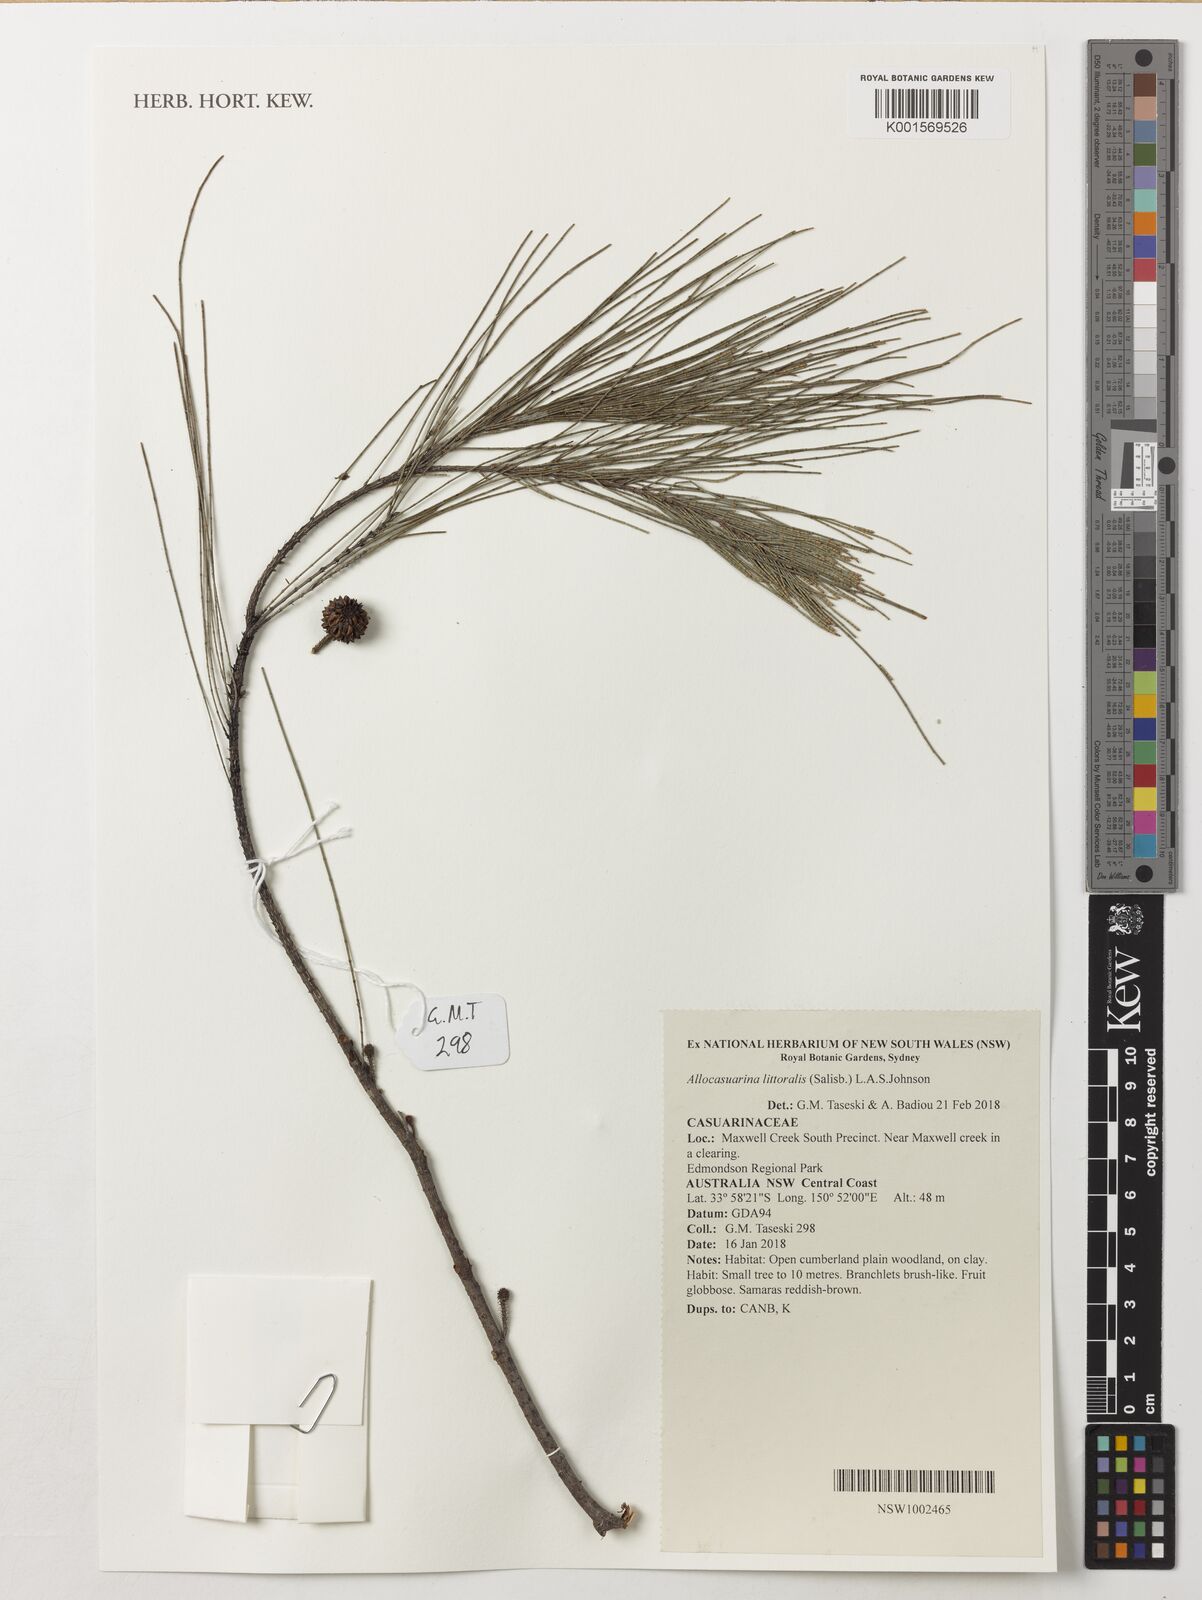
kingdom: Plantae
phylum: Tracheophyta
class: Magnoliopsida
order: Fagales
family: Casuarinaceae
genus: Allocasuarina
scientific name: Allocasuarina littoralis
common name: Black she-oak
